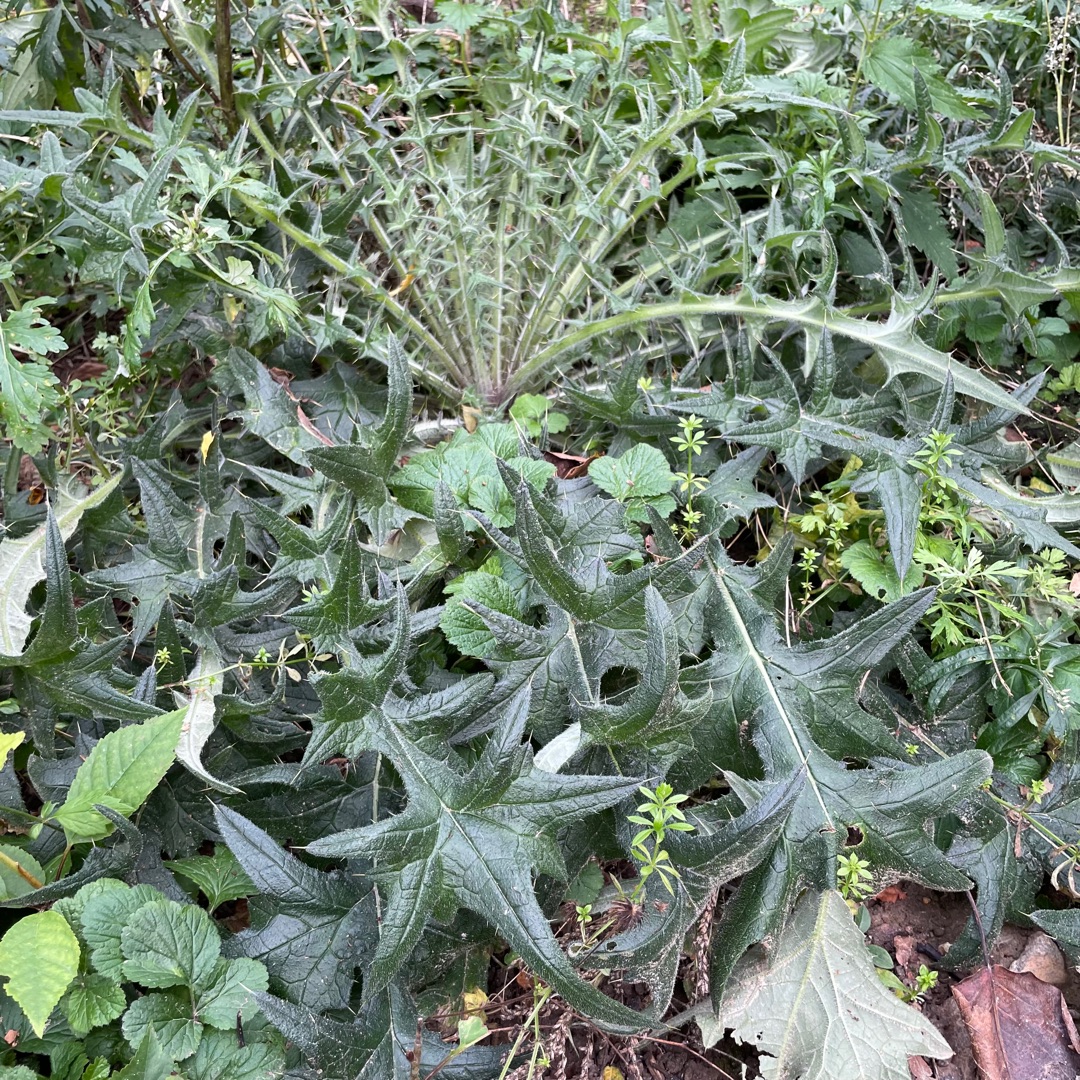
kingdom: Plantae
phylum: Tracheophyta
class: Magnoliopsida
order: Asterales
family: Asteraceae
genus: Cirsium
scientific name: Cirsium vulgare
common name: Horse-tidsel
